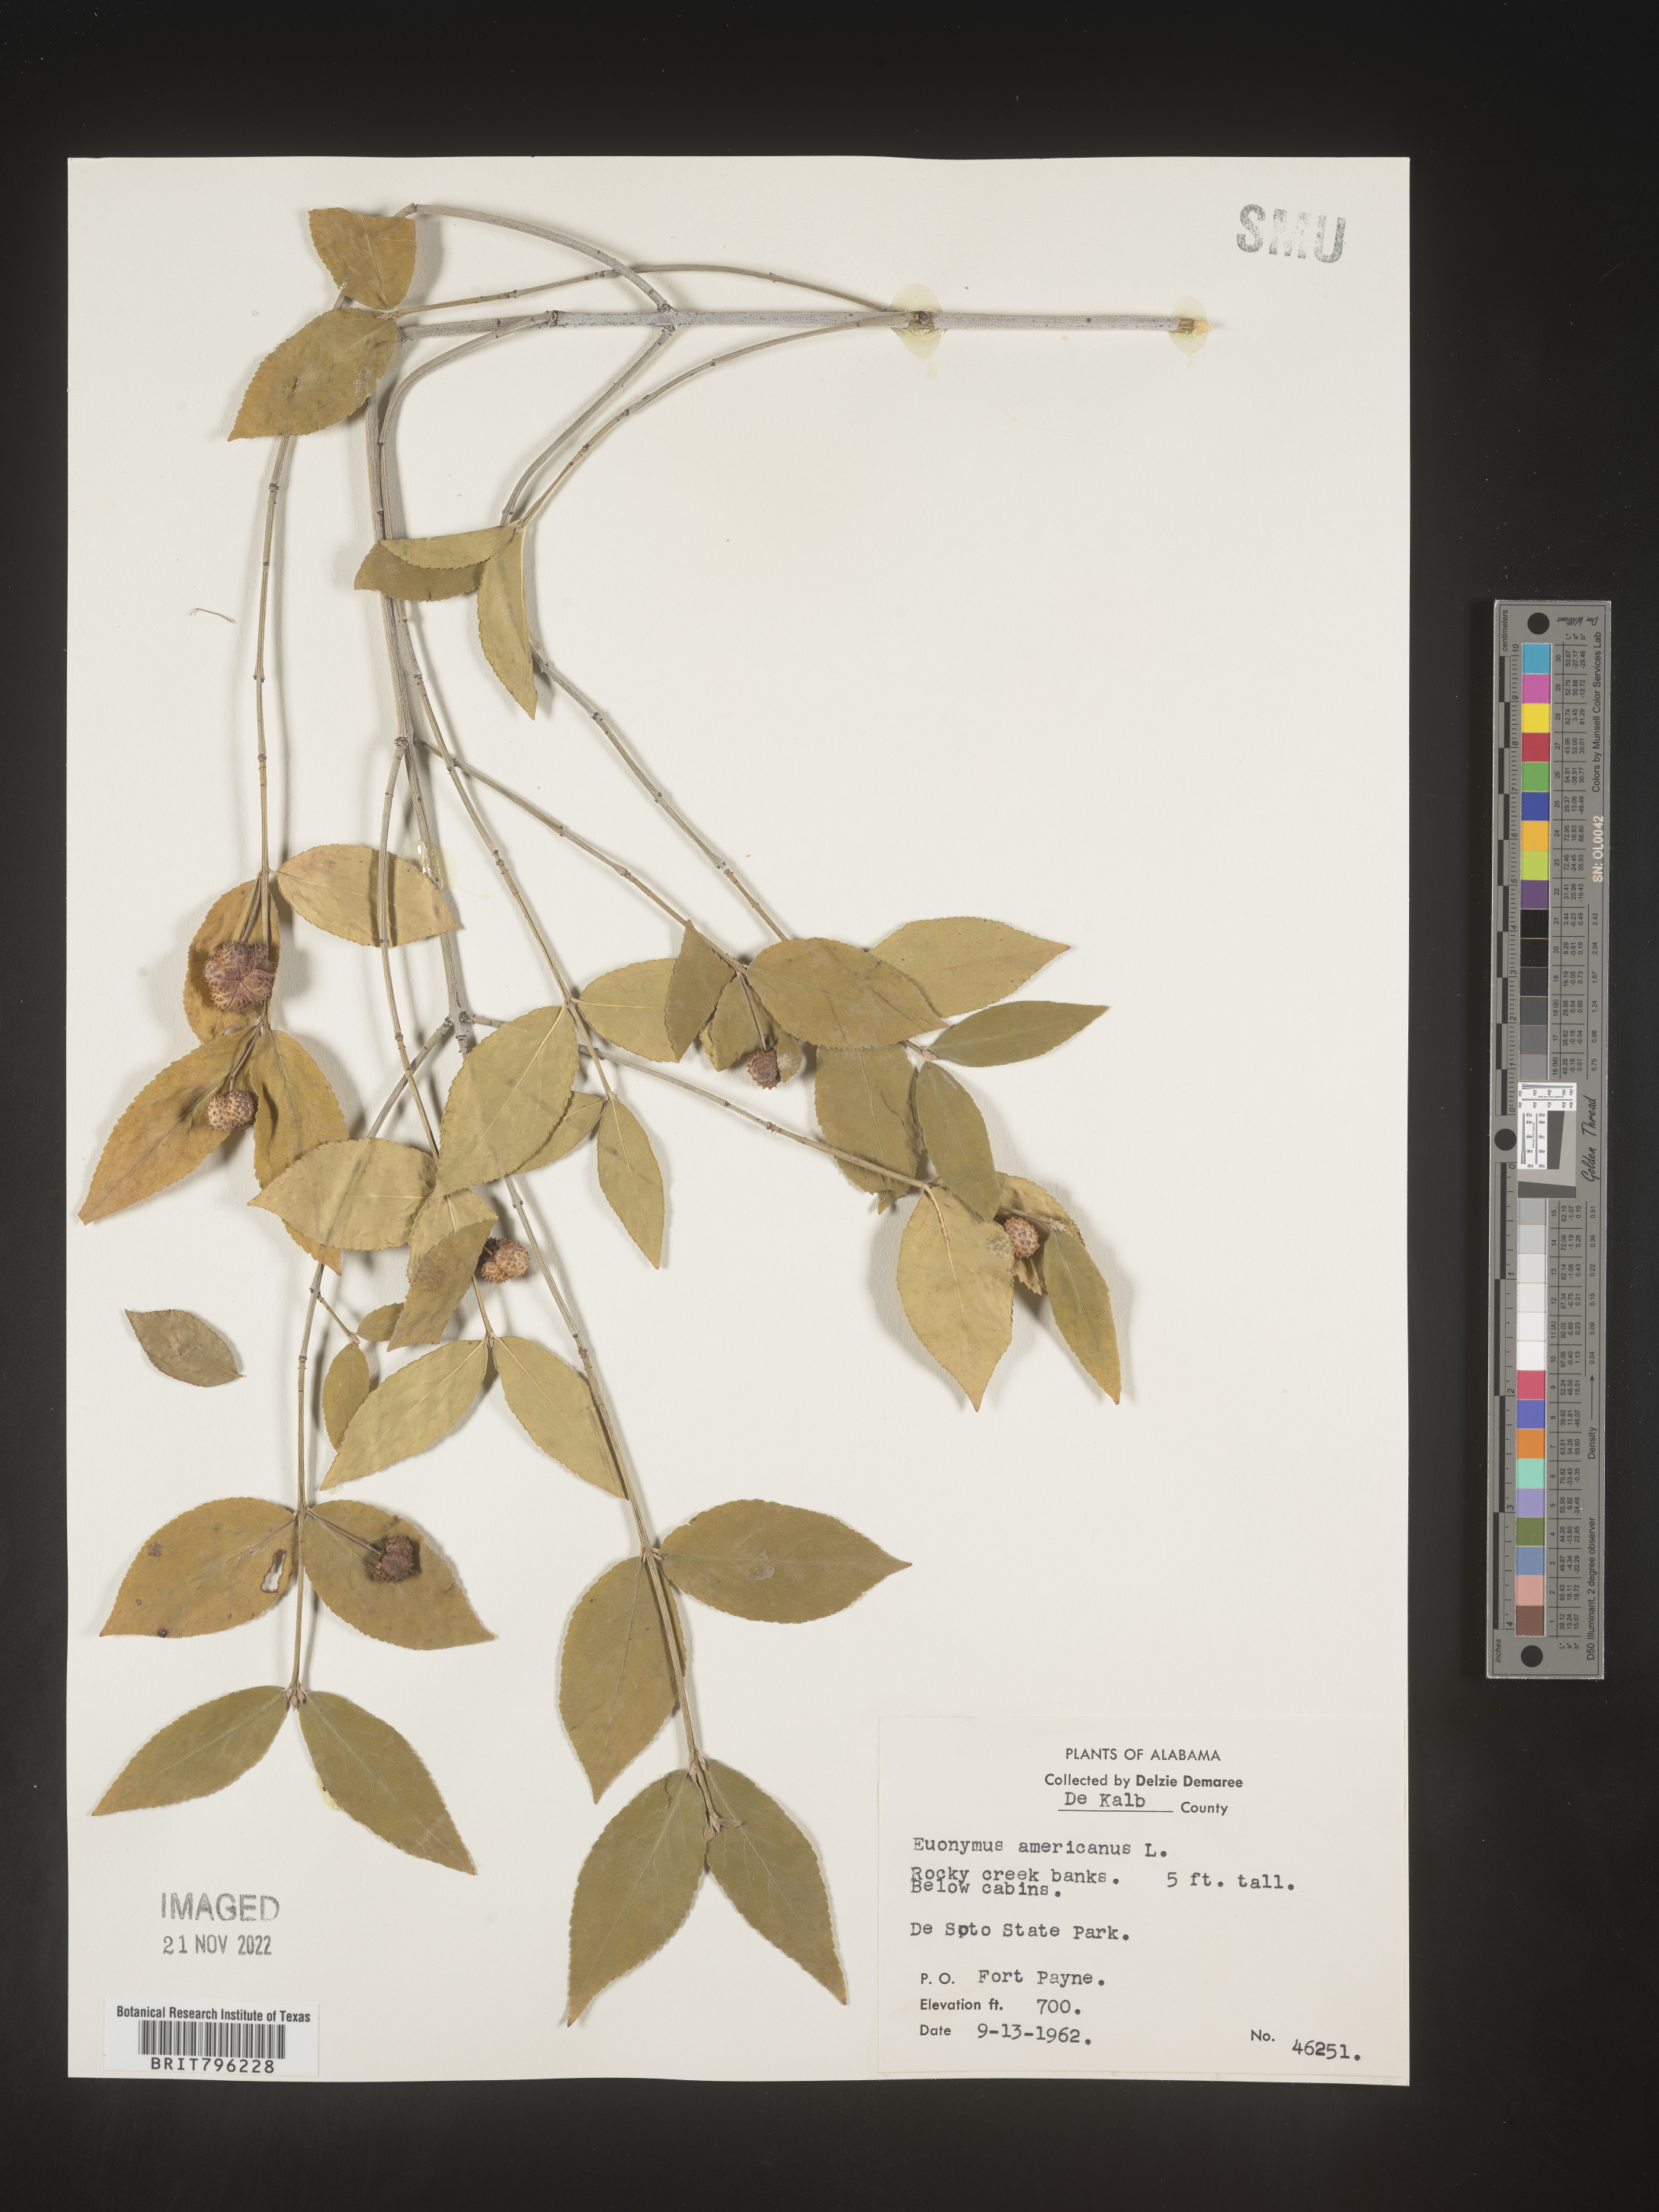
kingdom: Plantae
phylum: Tracheophyta
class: Magnoliopsida
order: Celastrales
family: Celastraceae
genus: Euonymus
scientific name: Euonymus americanus
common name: Bursting-heart
